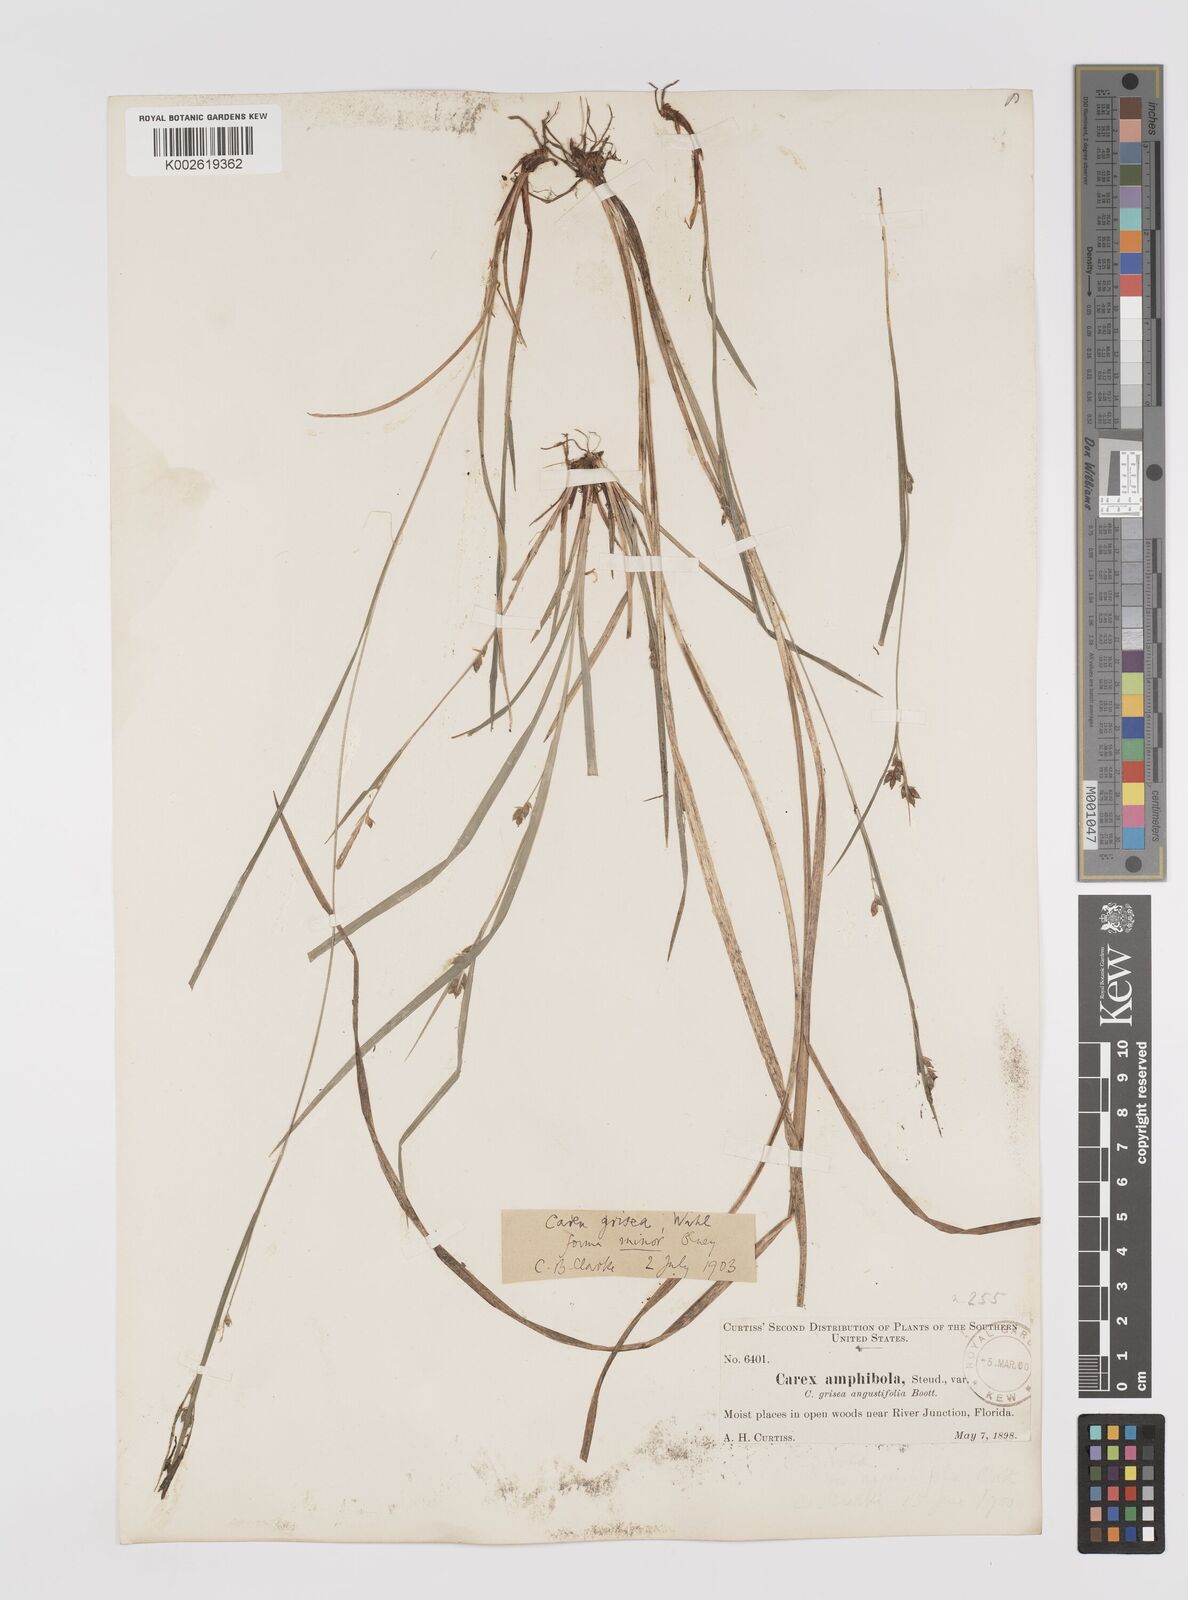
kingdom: Plantae
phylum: Tracheophyta
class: Liliopsida
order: Poales
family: Cyperaceae
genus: Carex
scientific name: Carex grisea
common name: Eastern narrow-leaved sedge
